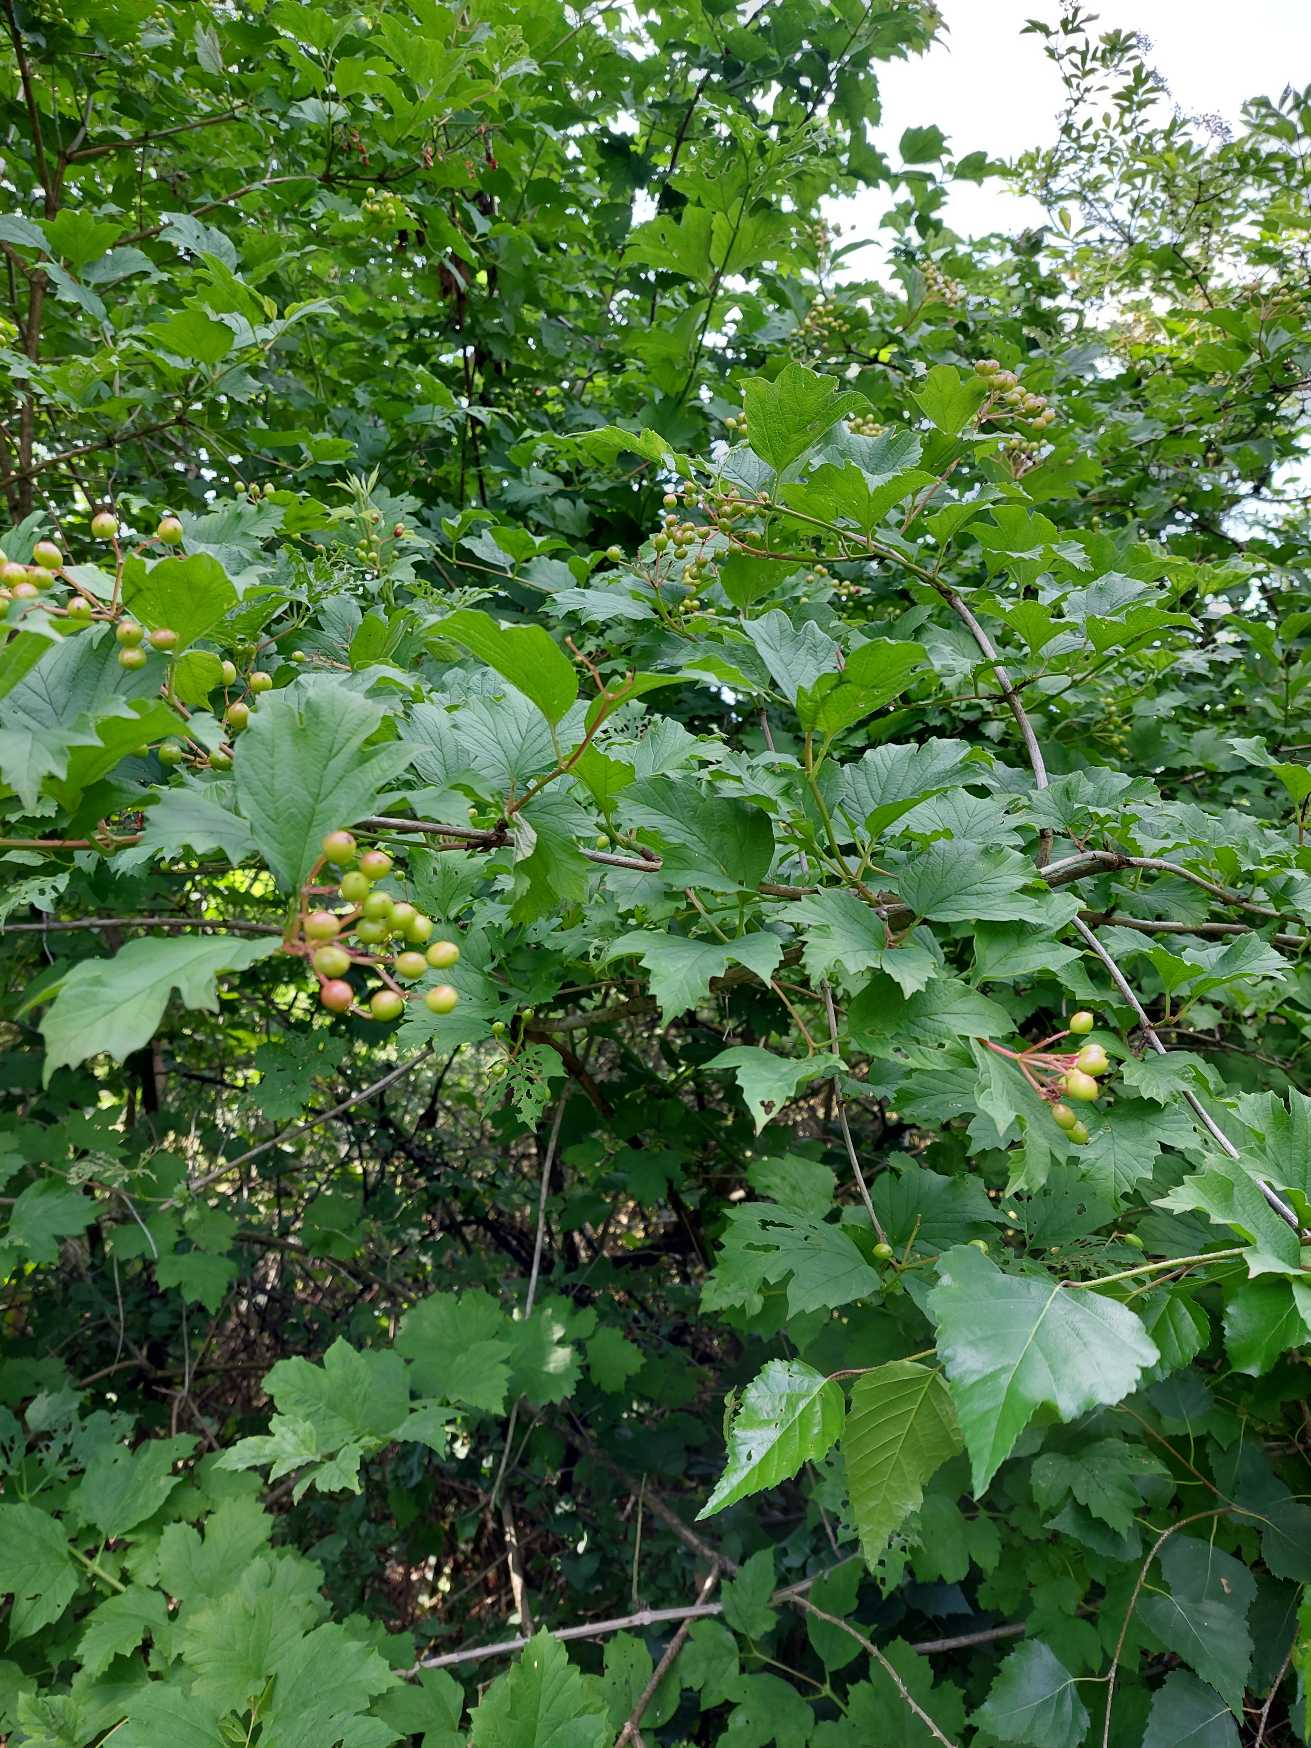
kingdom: Plantae
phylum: Tracheophyta
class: Magnoliopsida
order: Dipsacales
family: Viburnaceae
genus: Viburnum
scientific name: Viburnum opulus
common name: Kvalkved
